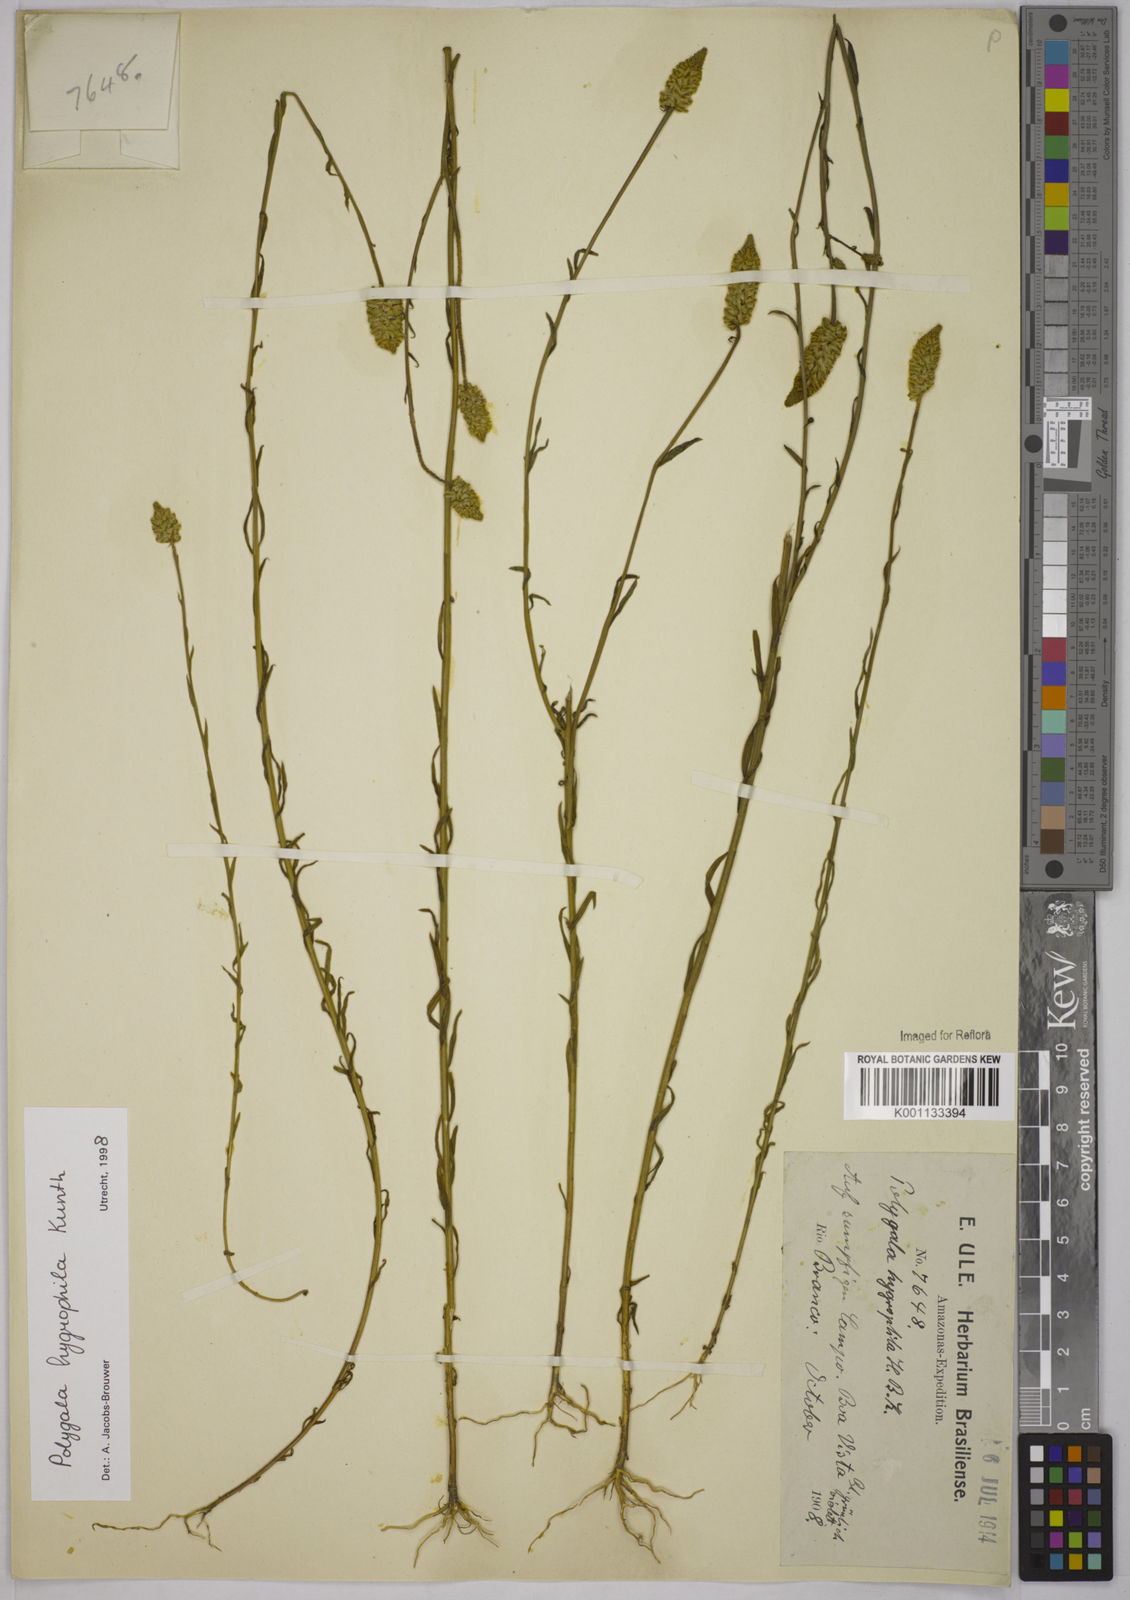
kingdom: Plantae
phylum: Tracheophyta
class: Magnoliopsida
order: Fabales
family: Polygalaceae
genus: Polygala
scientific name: Polygala hygrophila
